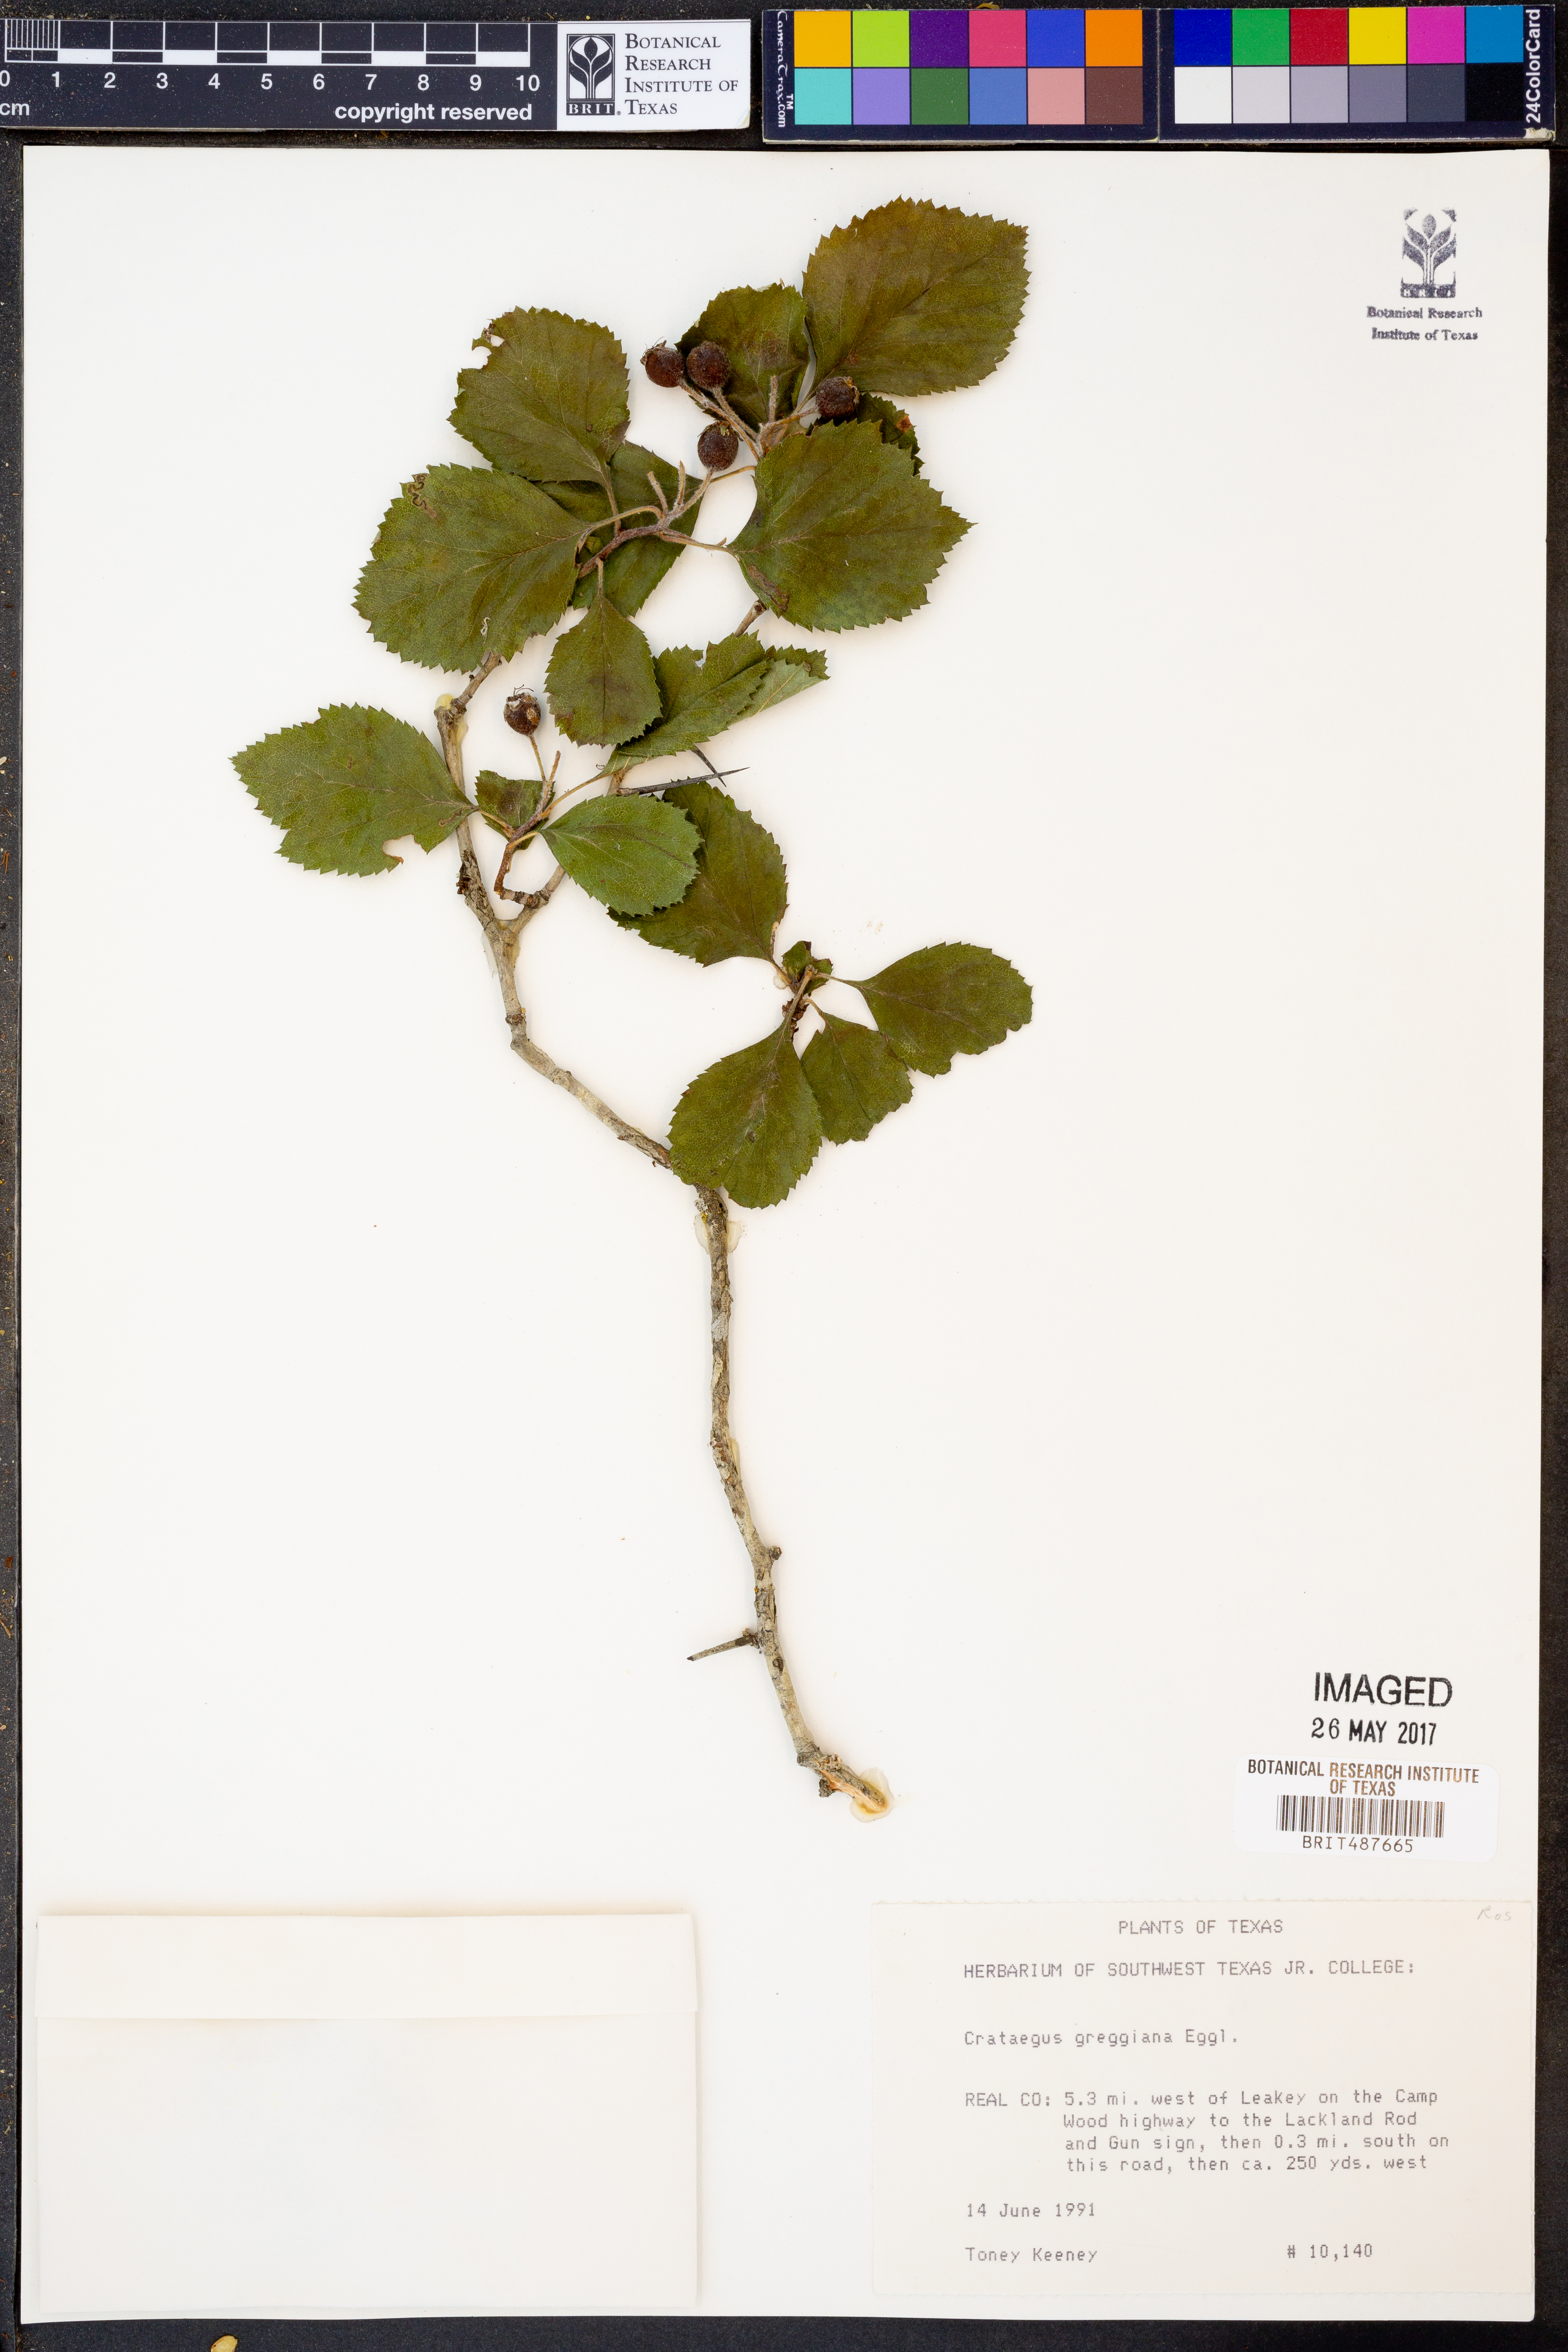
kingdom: Plantae
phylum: Tracheophyta
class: Magnoliopsida
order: Rosales
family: Rosaceae
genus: Crataegus
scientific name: Crataegus greggiana
